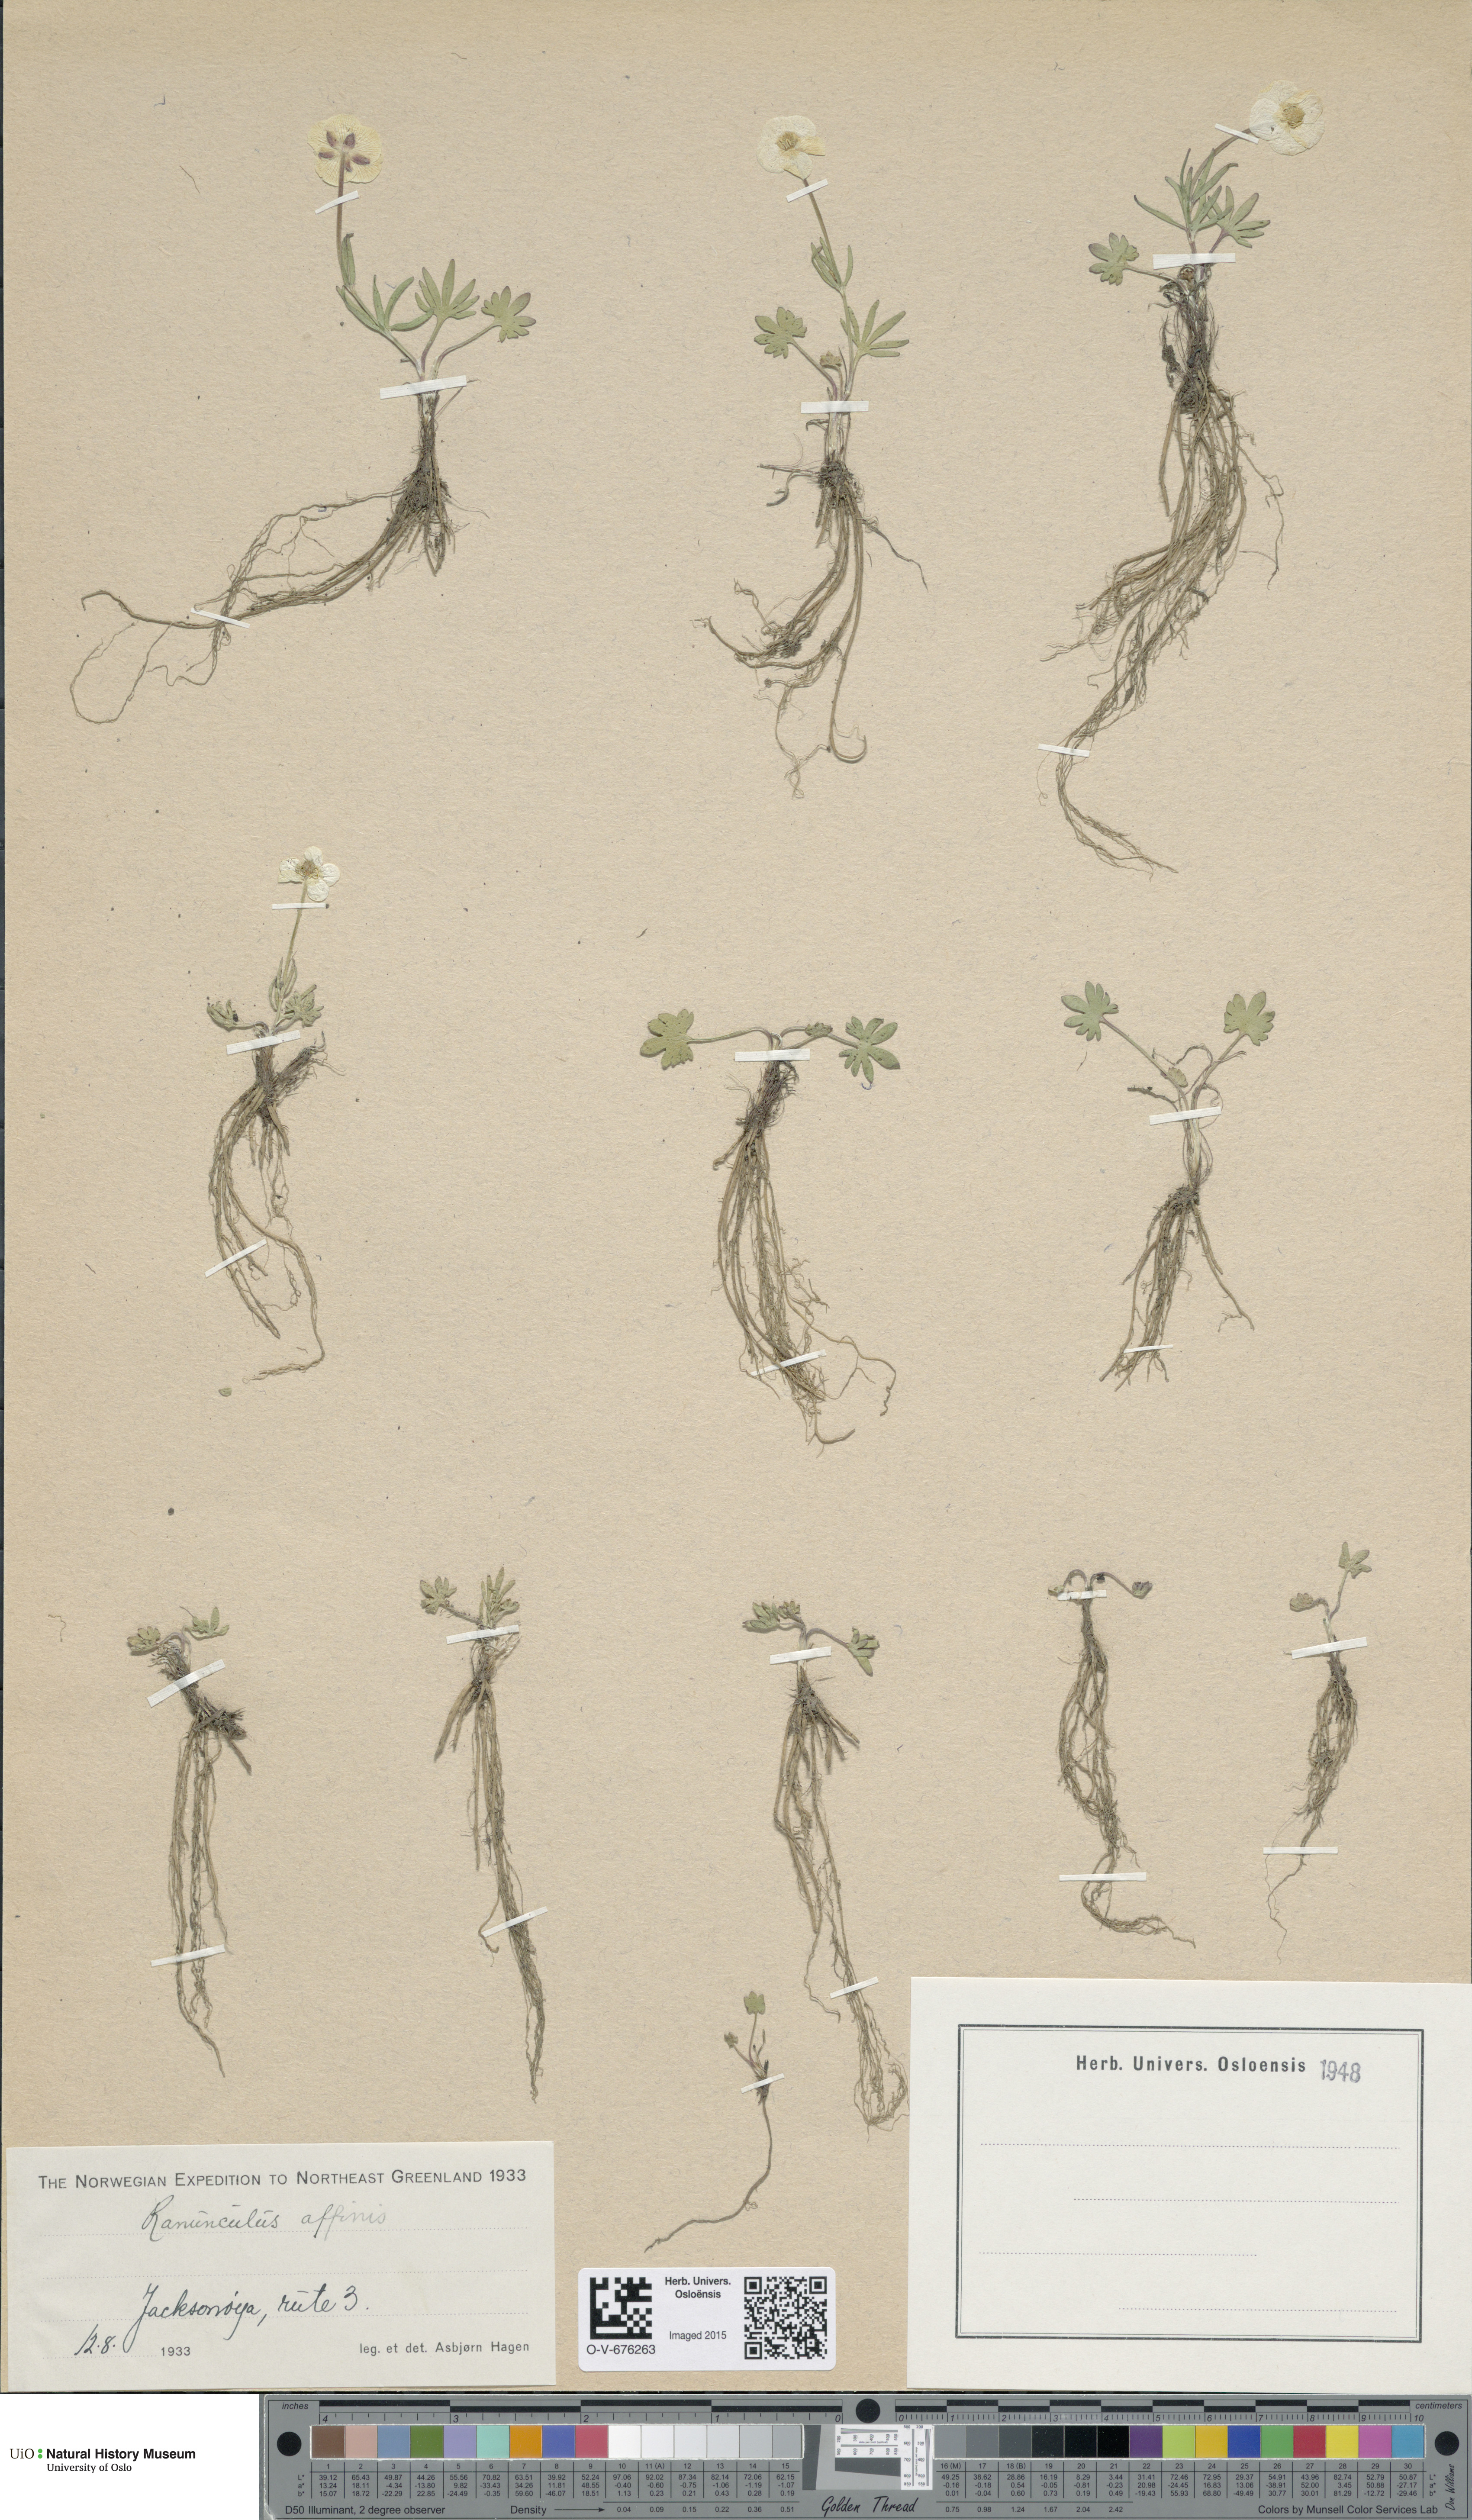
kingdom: Plantae
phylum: Tracheophyta
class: Magnoliopsida
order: Ranunculales
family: Ranunculaceae
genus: Ranunculus
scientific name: Ranunculus arcticus
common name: Bird's-foot buttercup
